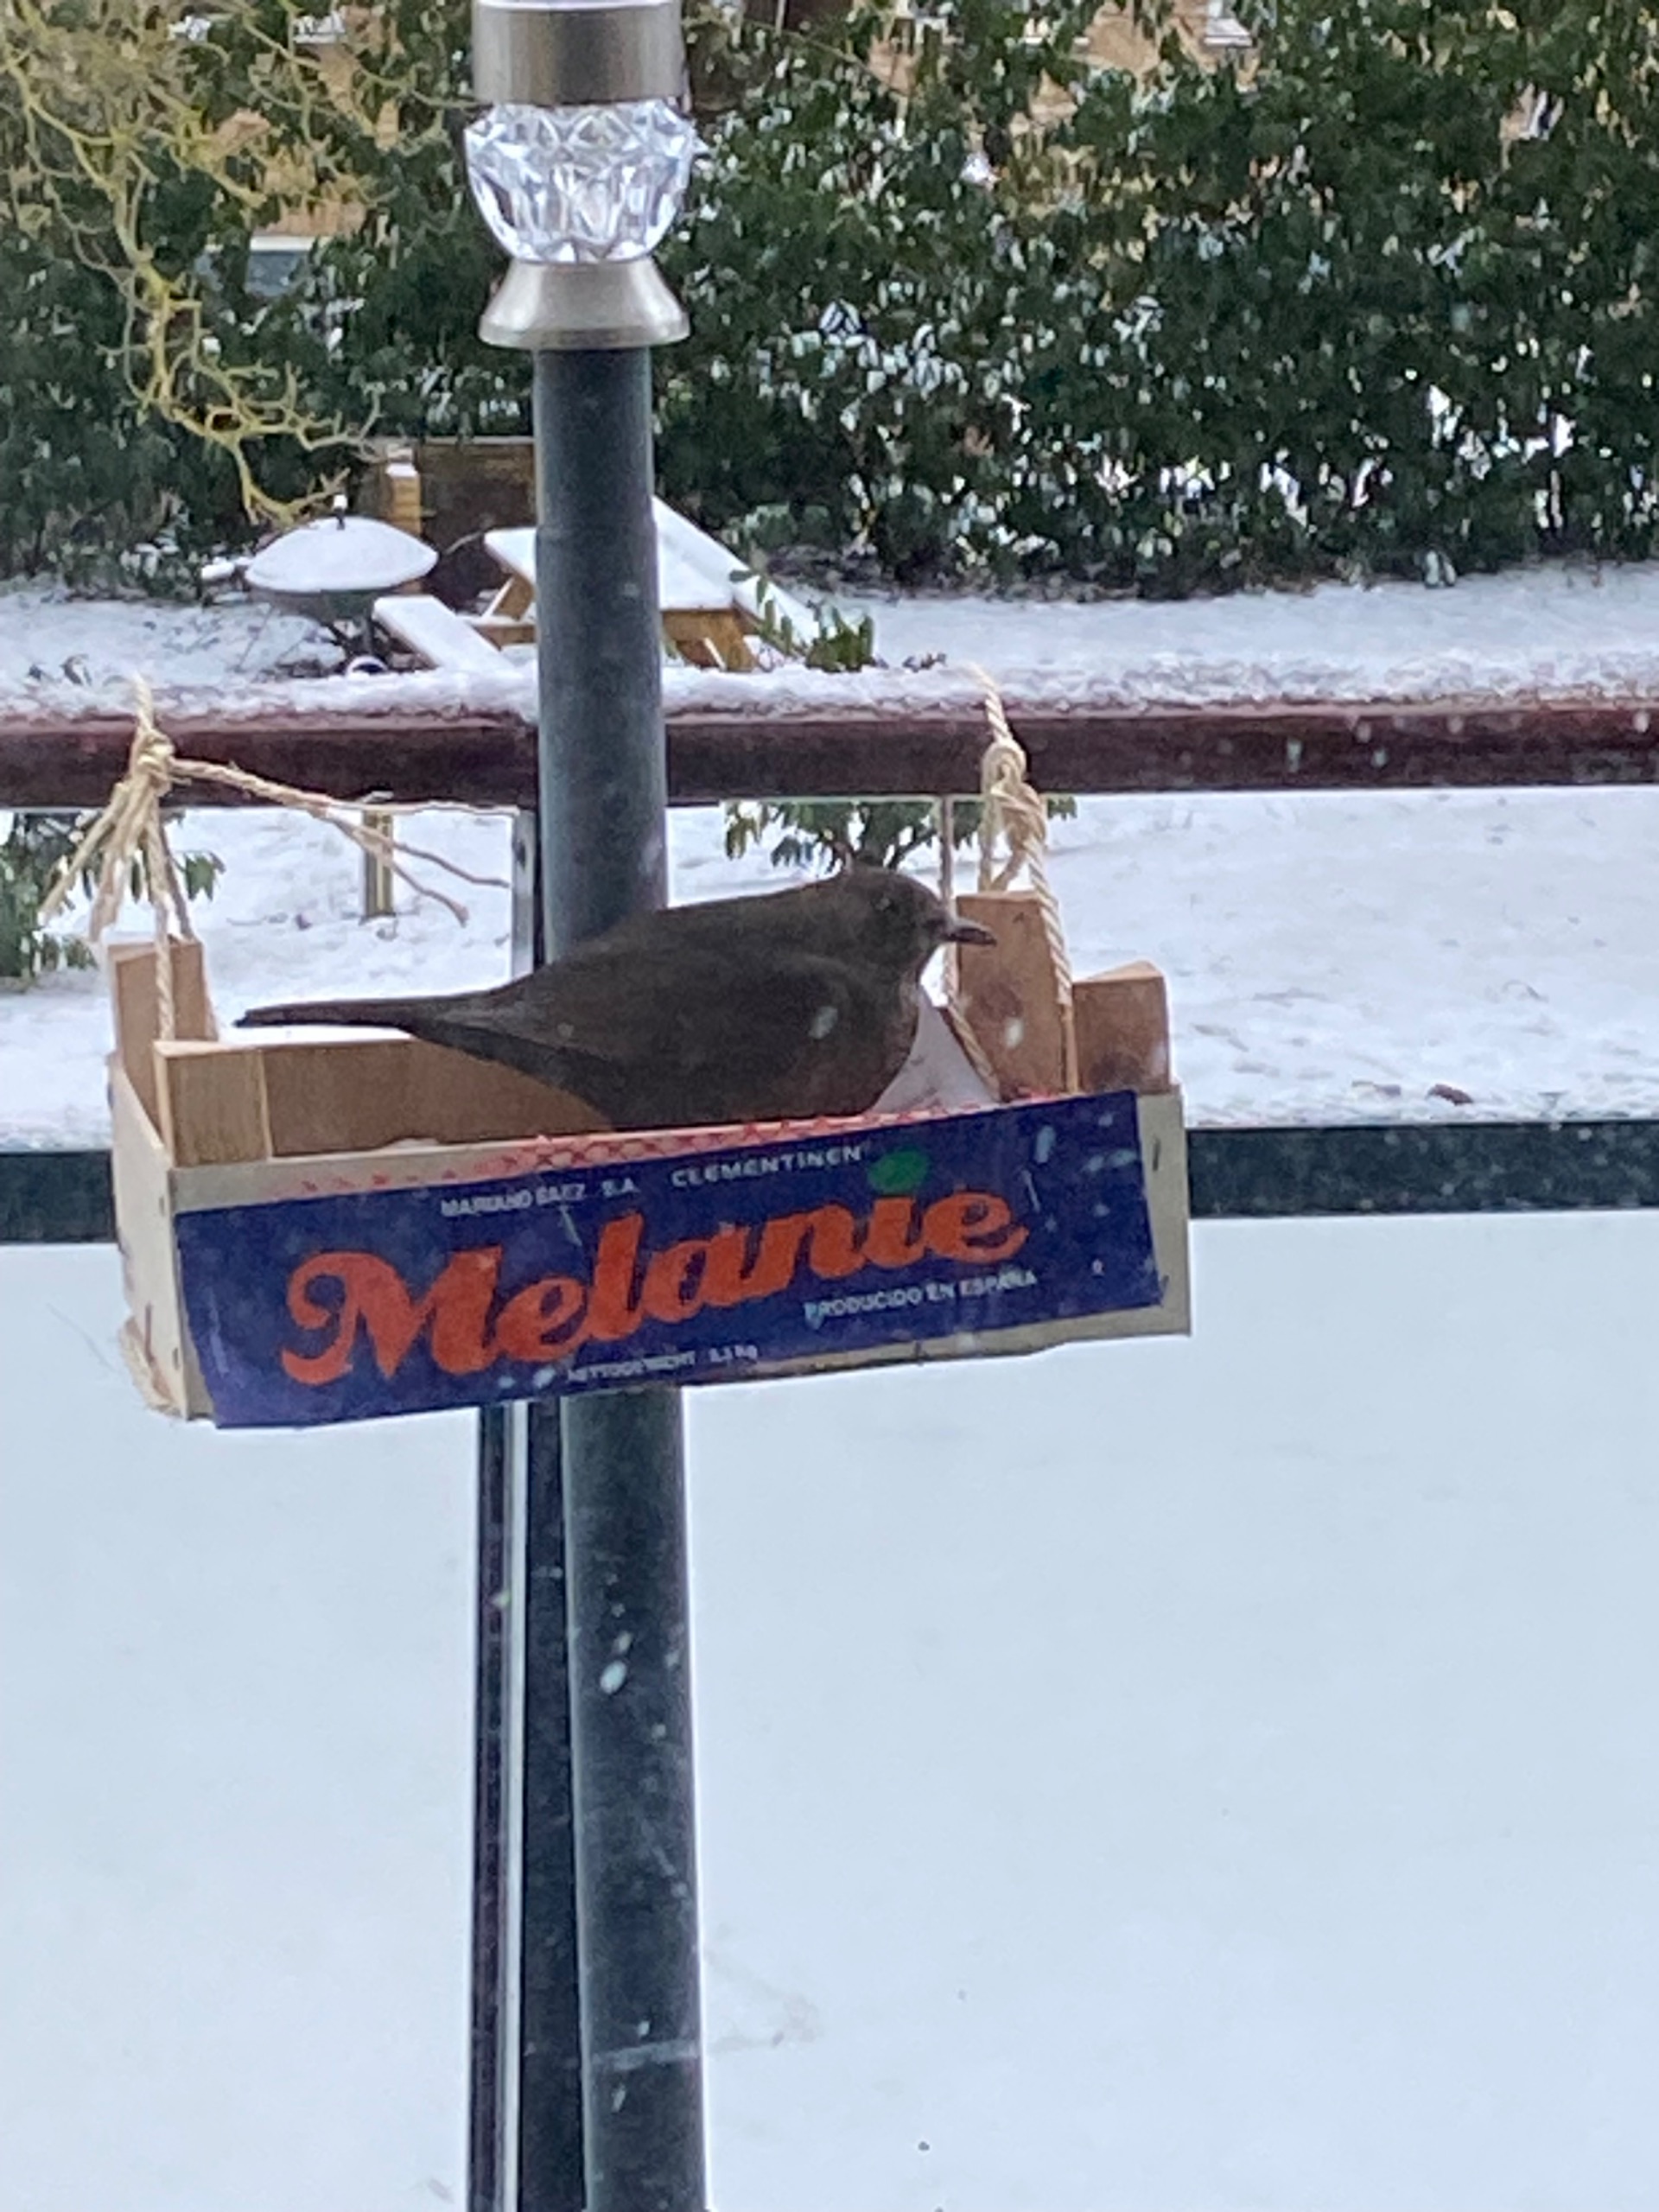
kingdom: Animalia
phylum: Chordata
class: Aves
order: Passeriformes
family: Turdidae
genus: Turdus
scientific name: Turdus merula
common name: Solsort
